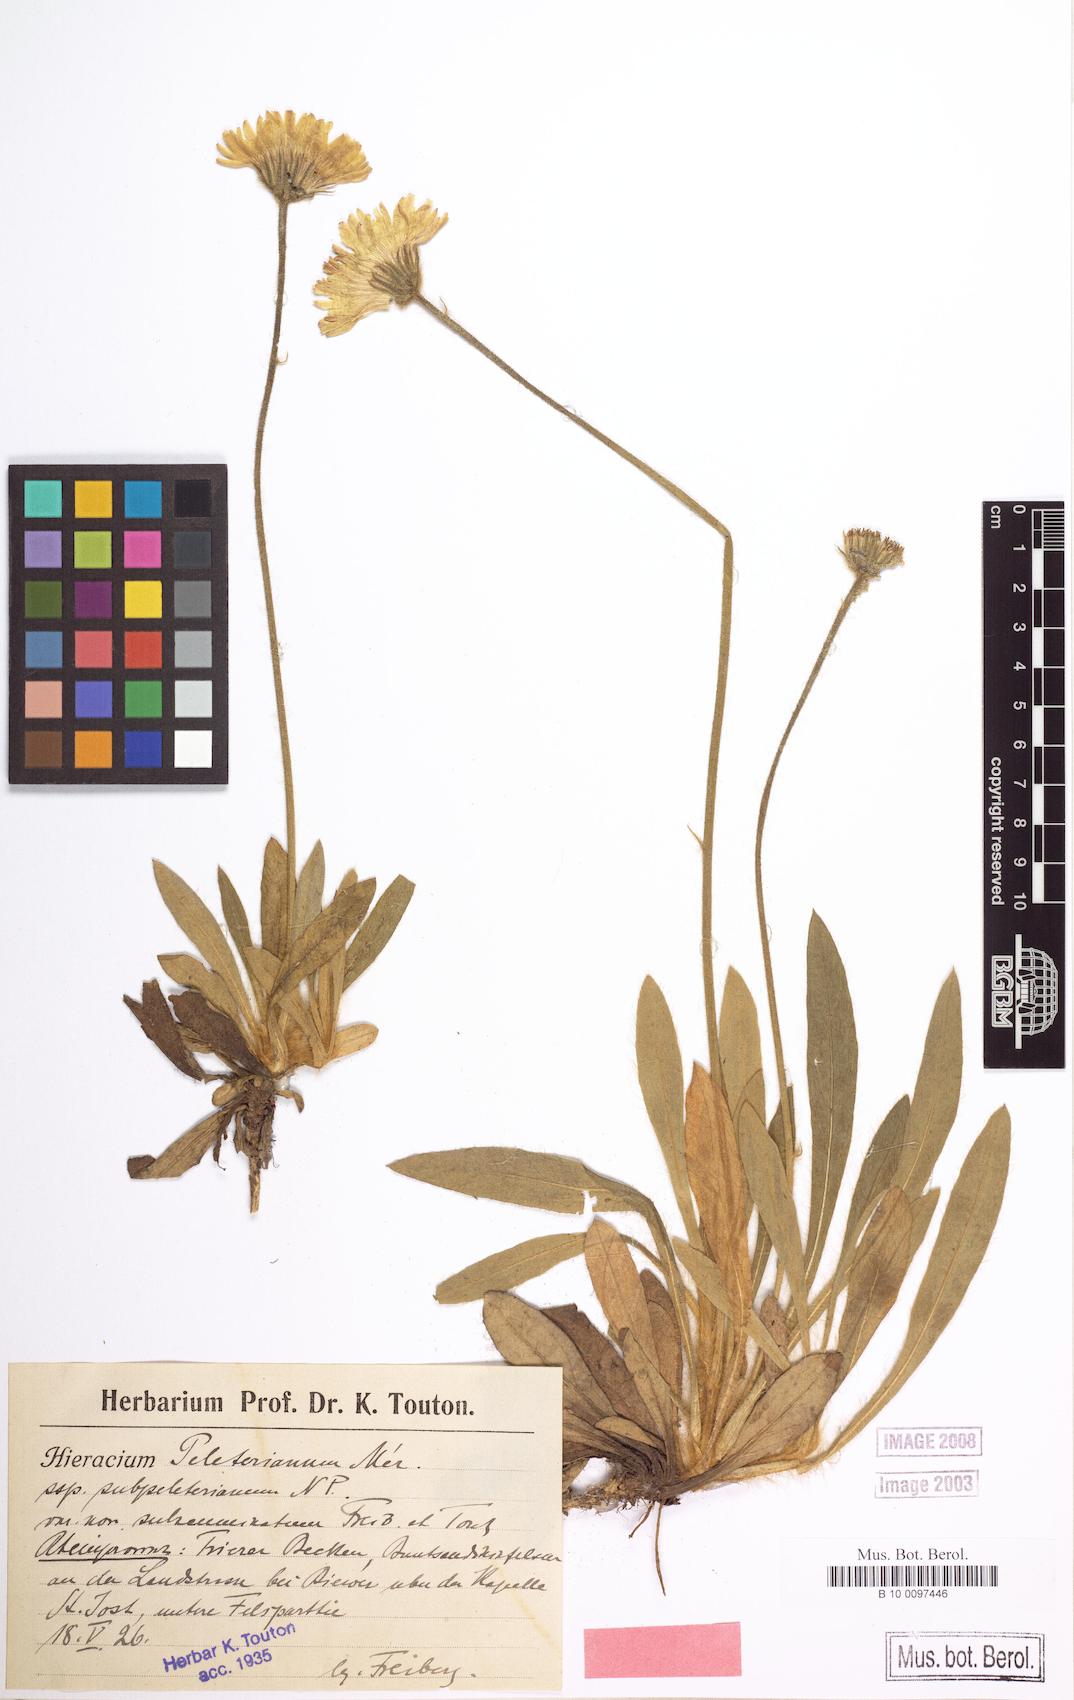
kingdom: Plantae
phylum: Tracheophyta
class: Magnoliopsida
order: Asterales
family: Asteraceae
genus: Pilosella
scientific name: Pilosella peleteriana
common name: Shaggy mouse-ear-hawkweed
